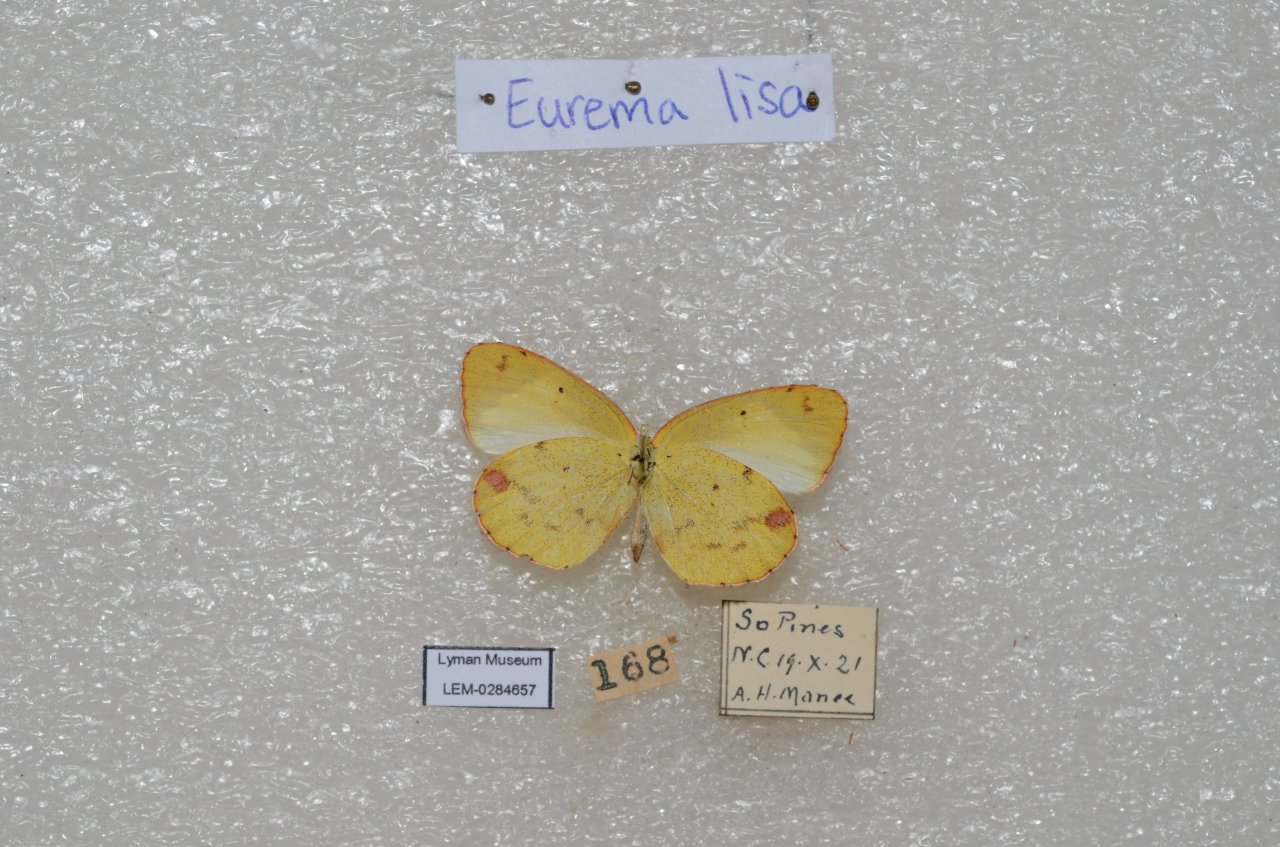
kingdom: Animalia
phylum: Arthropoda
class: Insecta
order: Lepidoptera
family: Pieridae
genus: Pyrisitia
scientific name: Pyrisitia lisa
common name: Little Yellow
